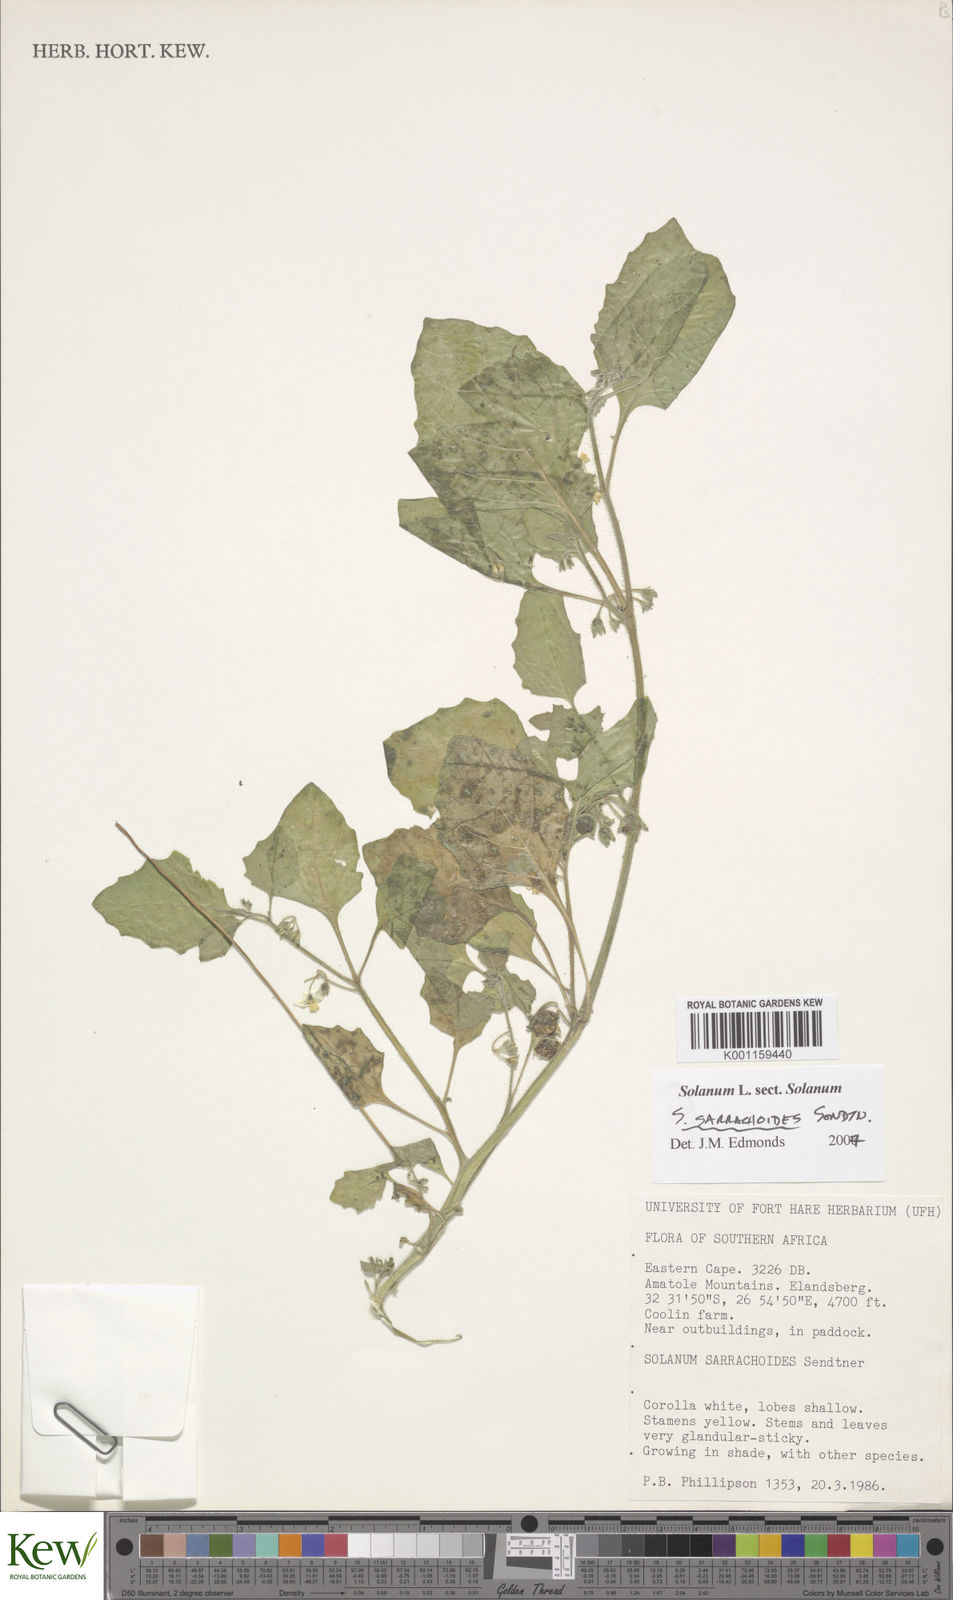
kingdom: Plantae
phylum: Tracheophyta
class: Magnoliopsida
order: Solanales
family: Solanaceae
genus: Solanum
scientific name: Solanum sarrachoides
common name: Leafy-fruited nightshade
